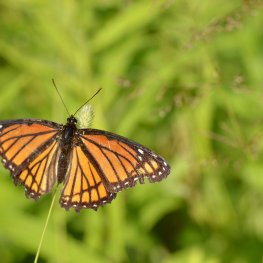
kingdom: Animalia
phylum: Arthropoda
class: Insecta
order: Lepidoptera
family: Nymphalidae
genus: Limenitis
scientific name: Limenitis archippus
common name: Viceroy
